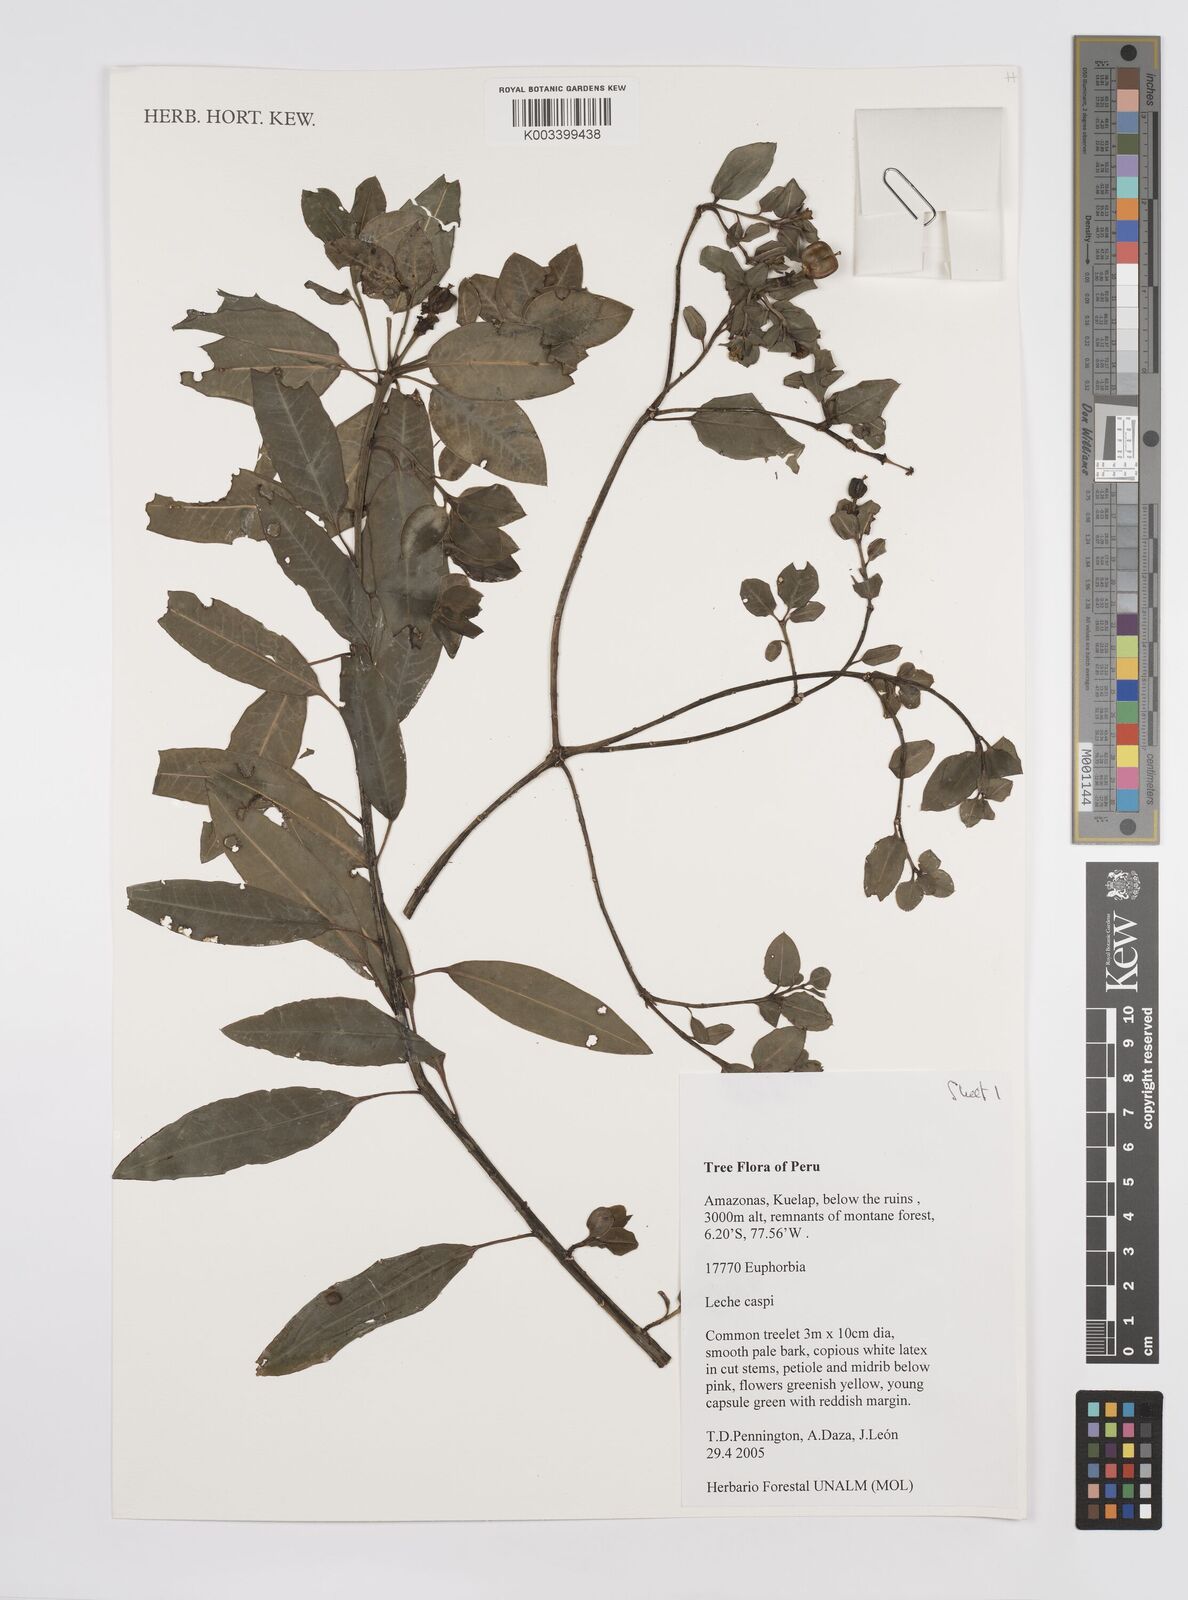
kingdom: Plantae
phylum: Tracheophyta
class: Magnoliopsida
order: Malpighiales
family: Euphorbiaceae
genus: Euphorbia
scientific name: Euphorbia
